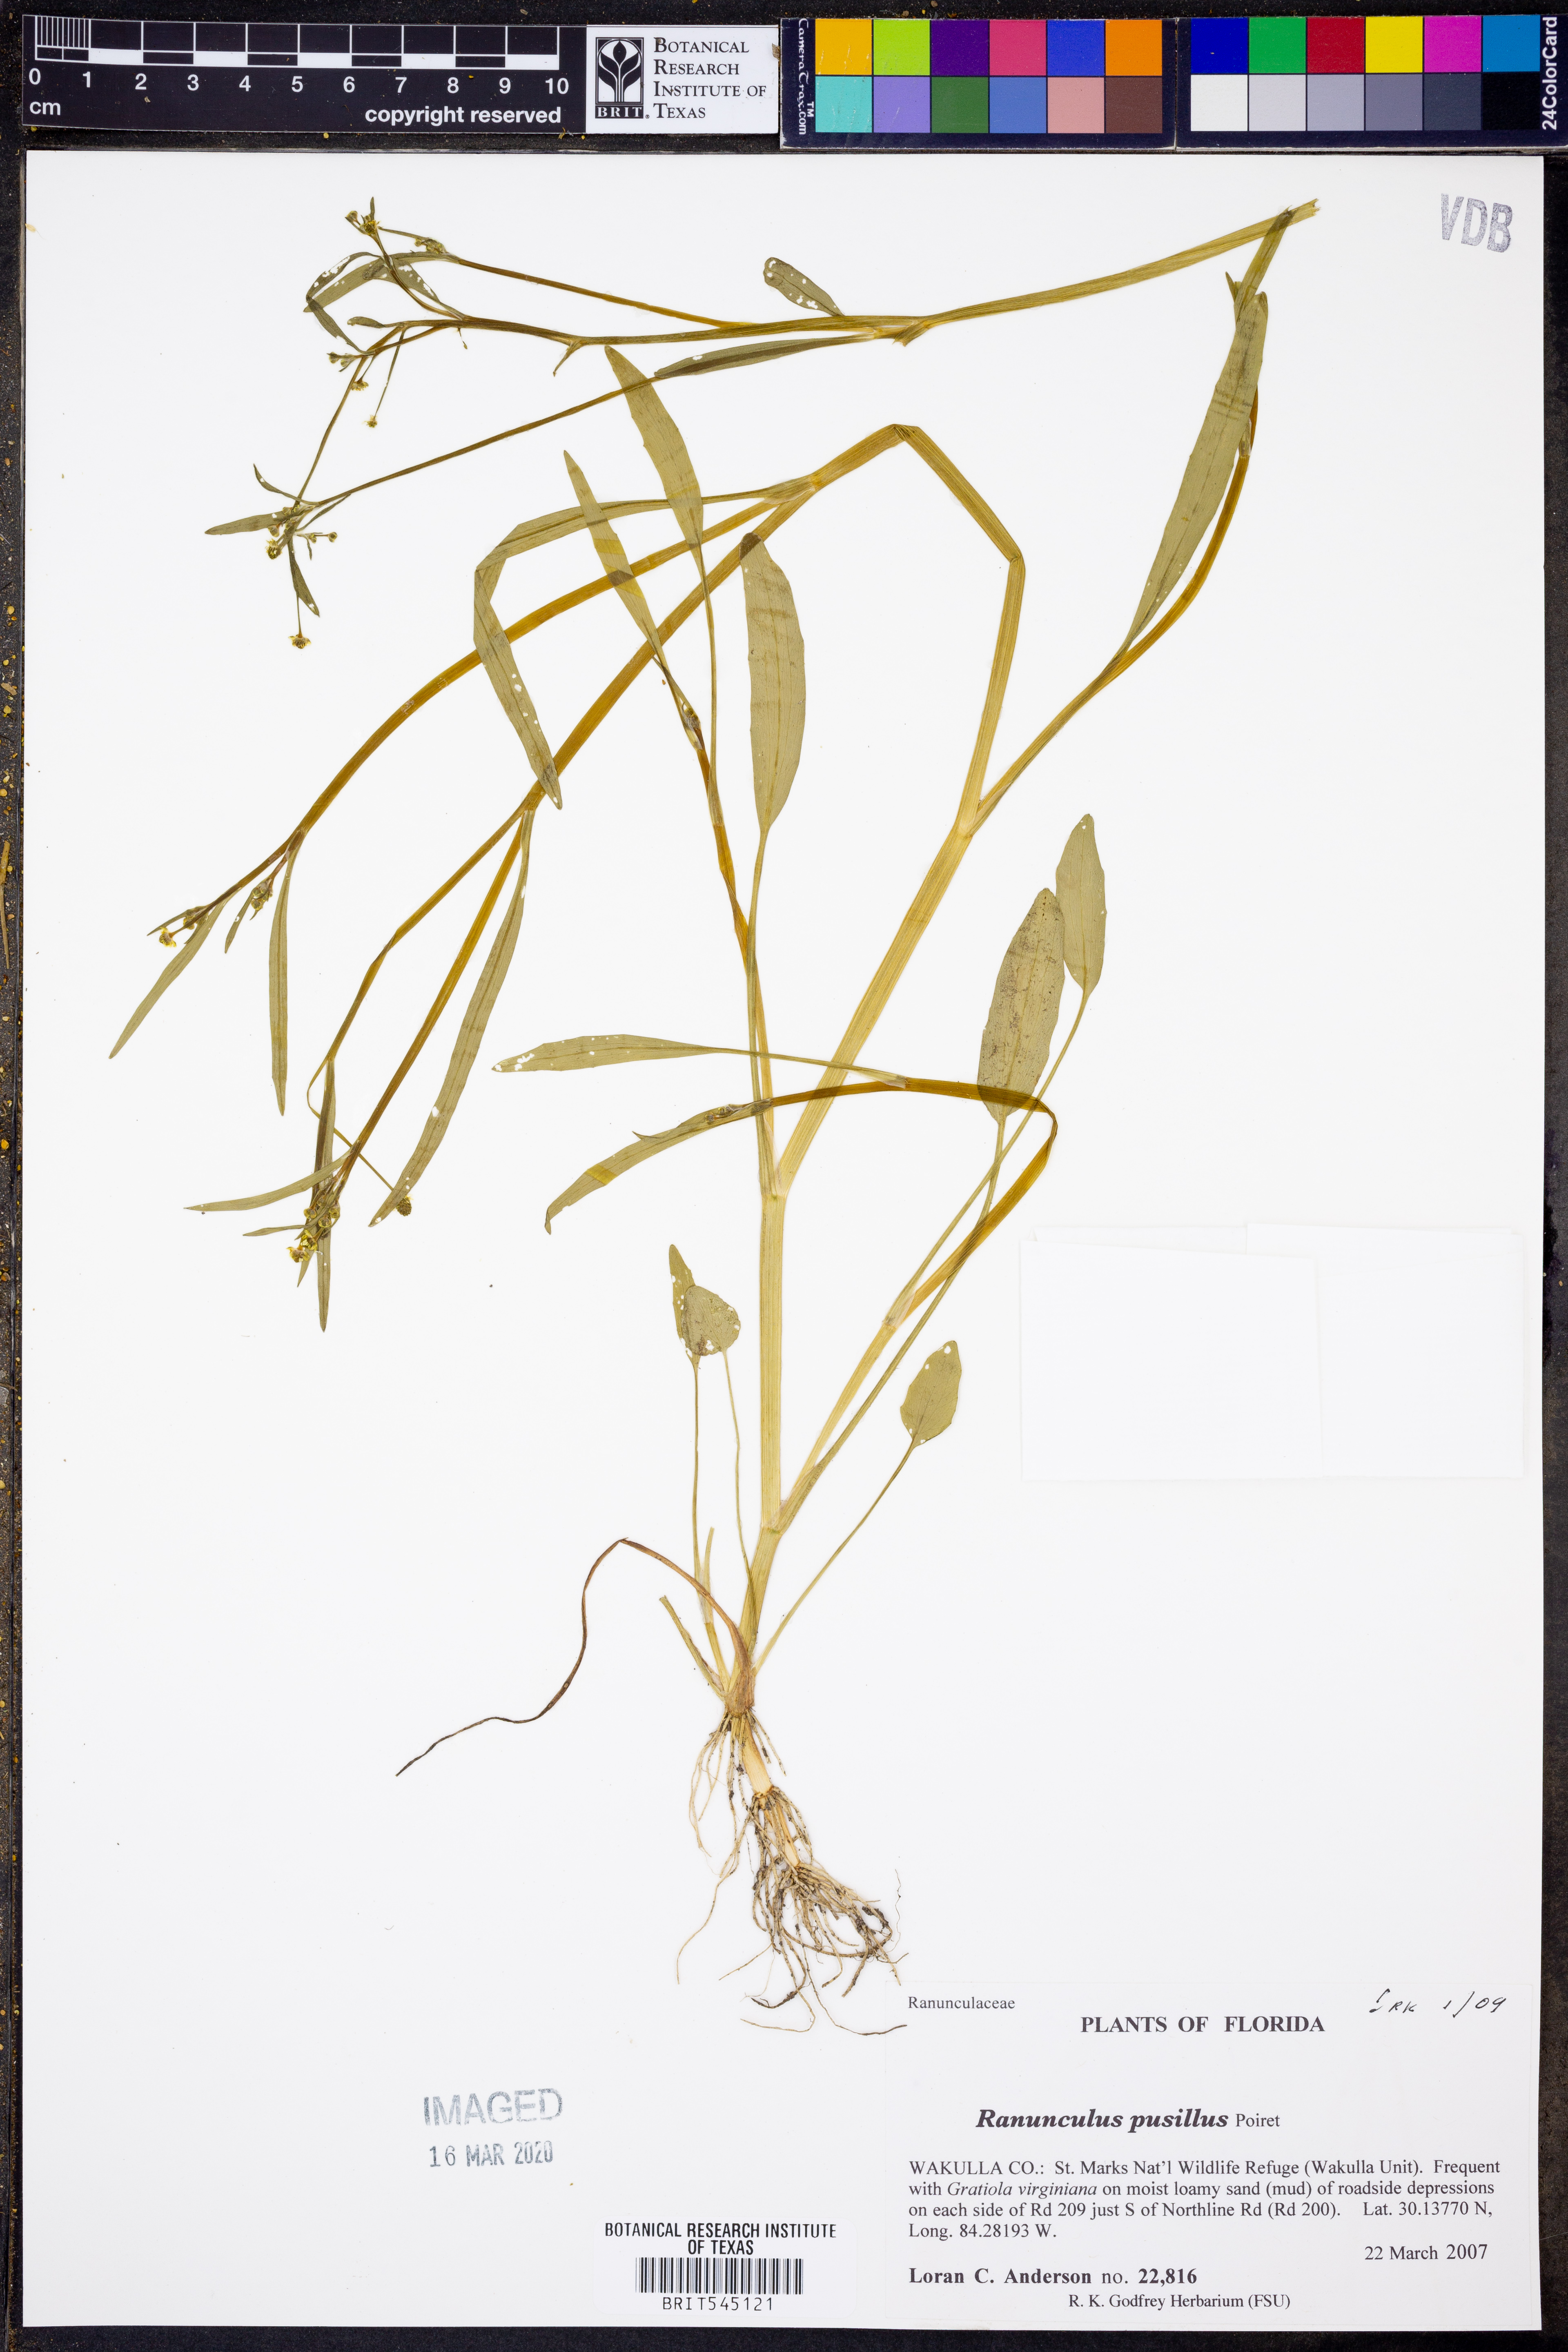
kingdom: Plantae
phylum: Tracheophyta
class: Magnoliopsida
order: Ranunculales
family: Ranunculaceae
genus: Ranunculus
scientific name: Ranunculus pusillus
